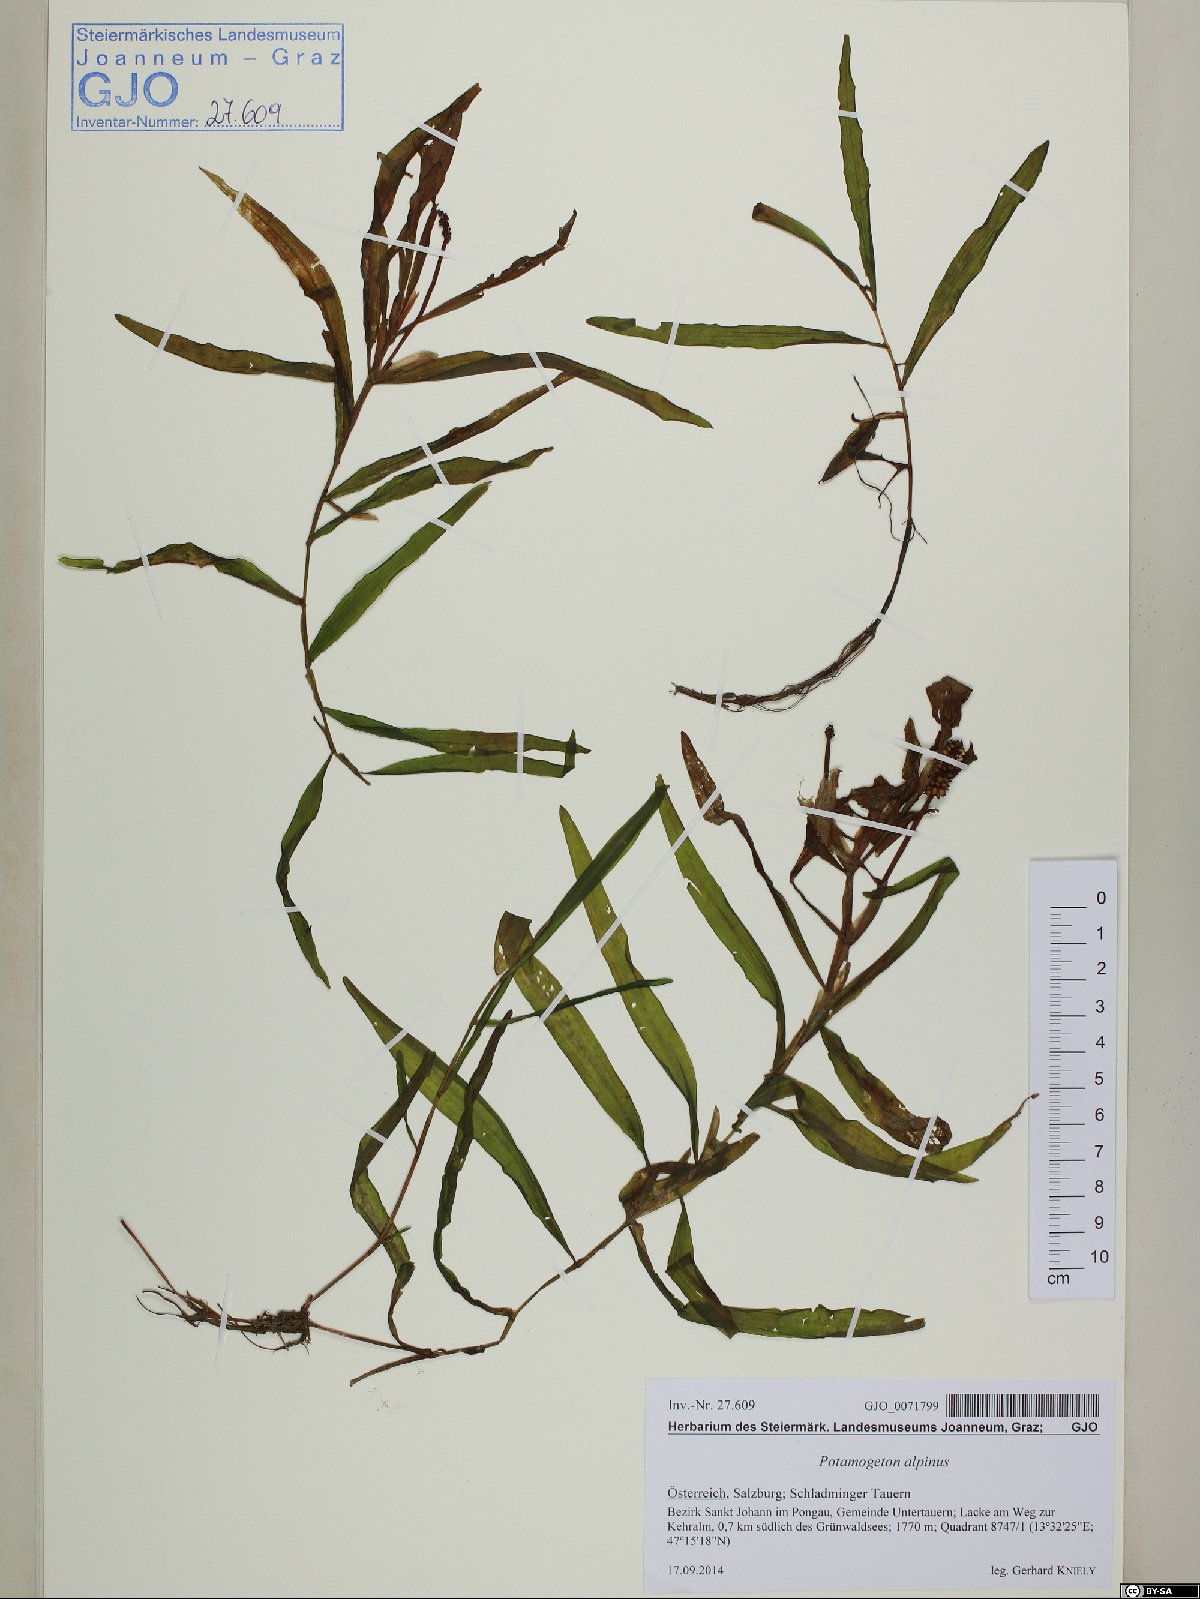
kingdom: Plantae
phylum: Tracheophyta
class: Liliopsida
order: Alismatales
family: Potamogetonaceae
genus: Potamogeton
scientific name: Potamogeton alpinus
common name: Red pondweed
